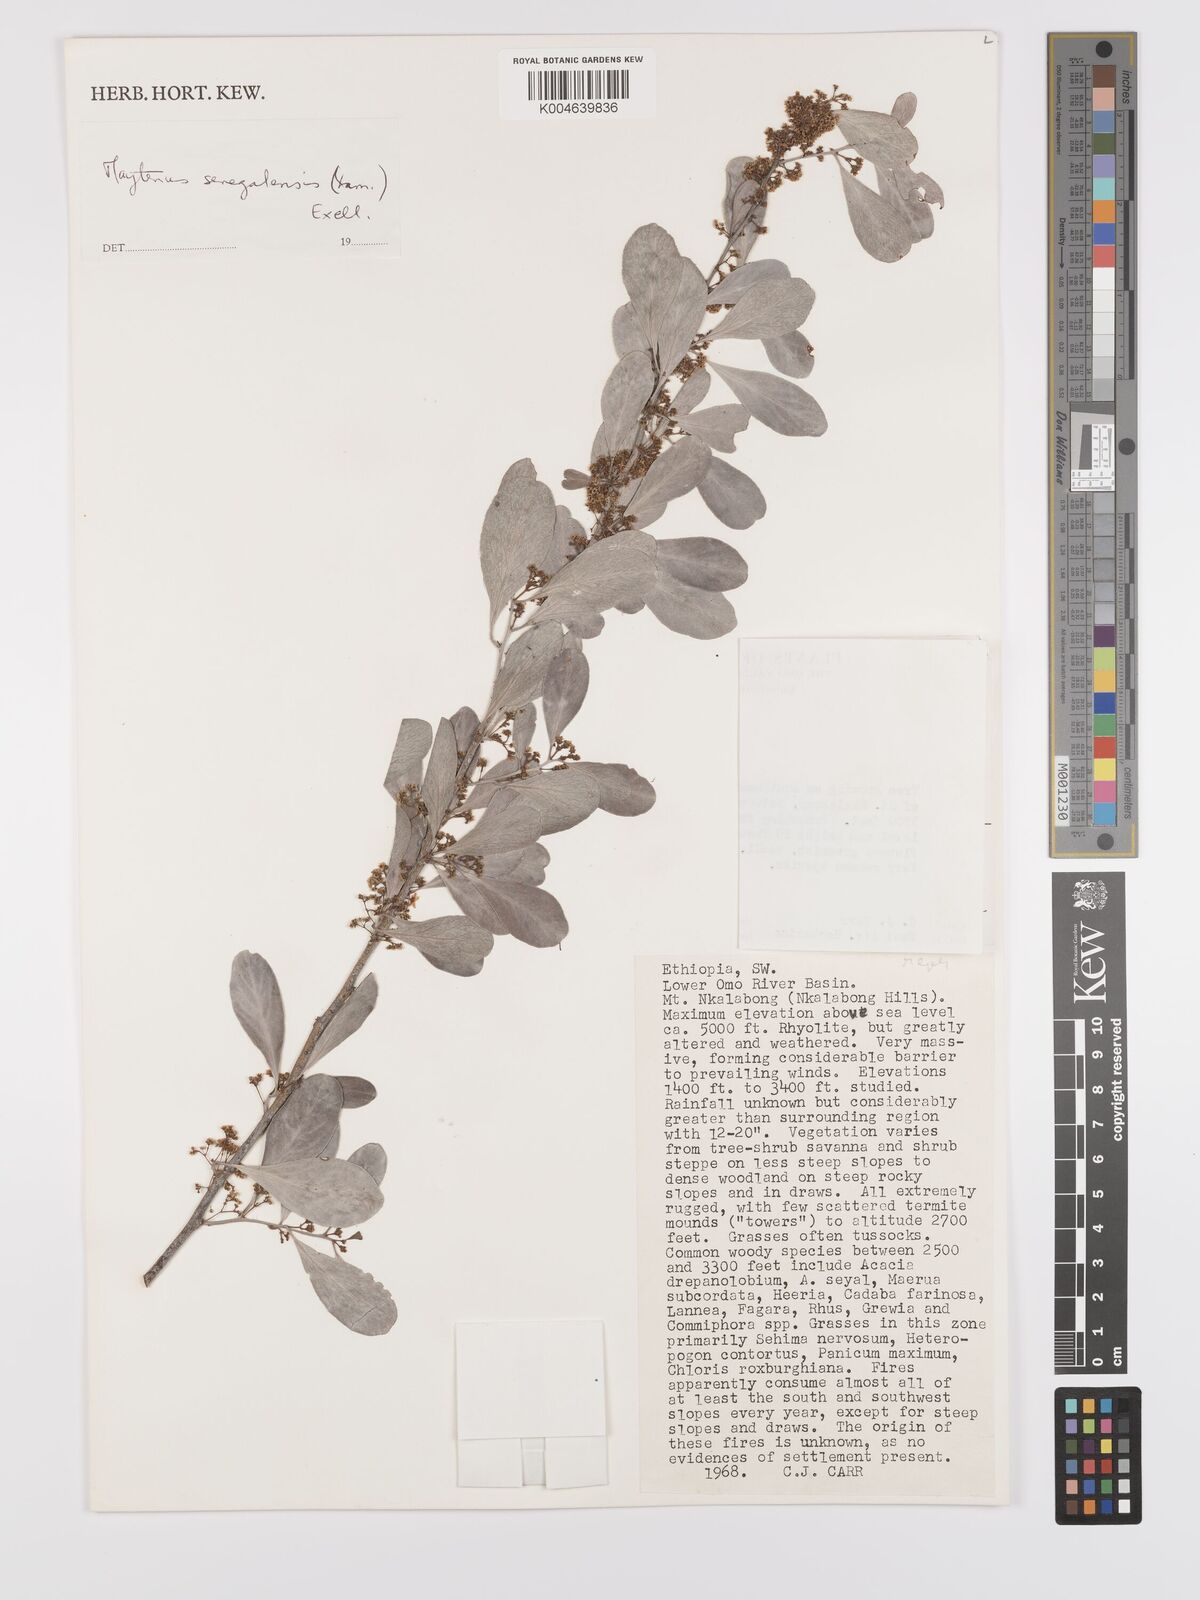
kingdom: Plantae
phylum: Tracheophyta
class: Magnoliopsida
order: Celastrales
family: Celastraceae
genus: Gymnosporia
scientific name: Gymnosporia senegalensis
